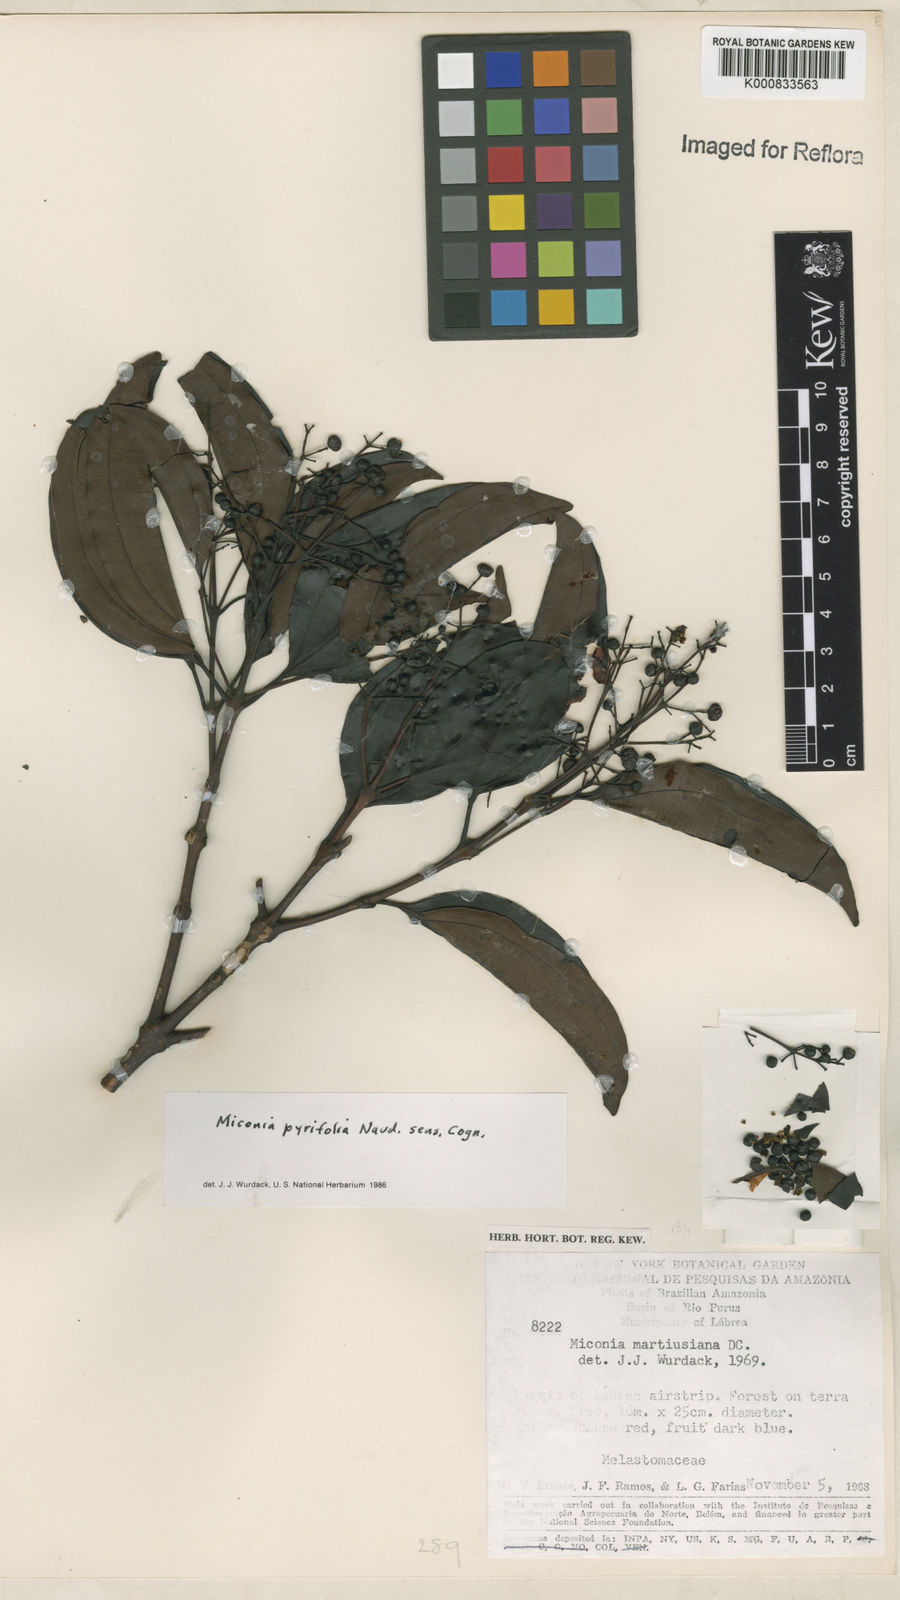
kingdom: Plantae
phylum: Tracheophyta
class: Magnoliopsida
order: Myrtales
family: Melastomataceae
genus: Miconia
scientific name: Miconia pyrifolia
